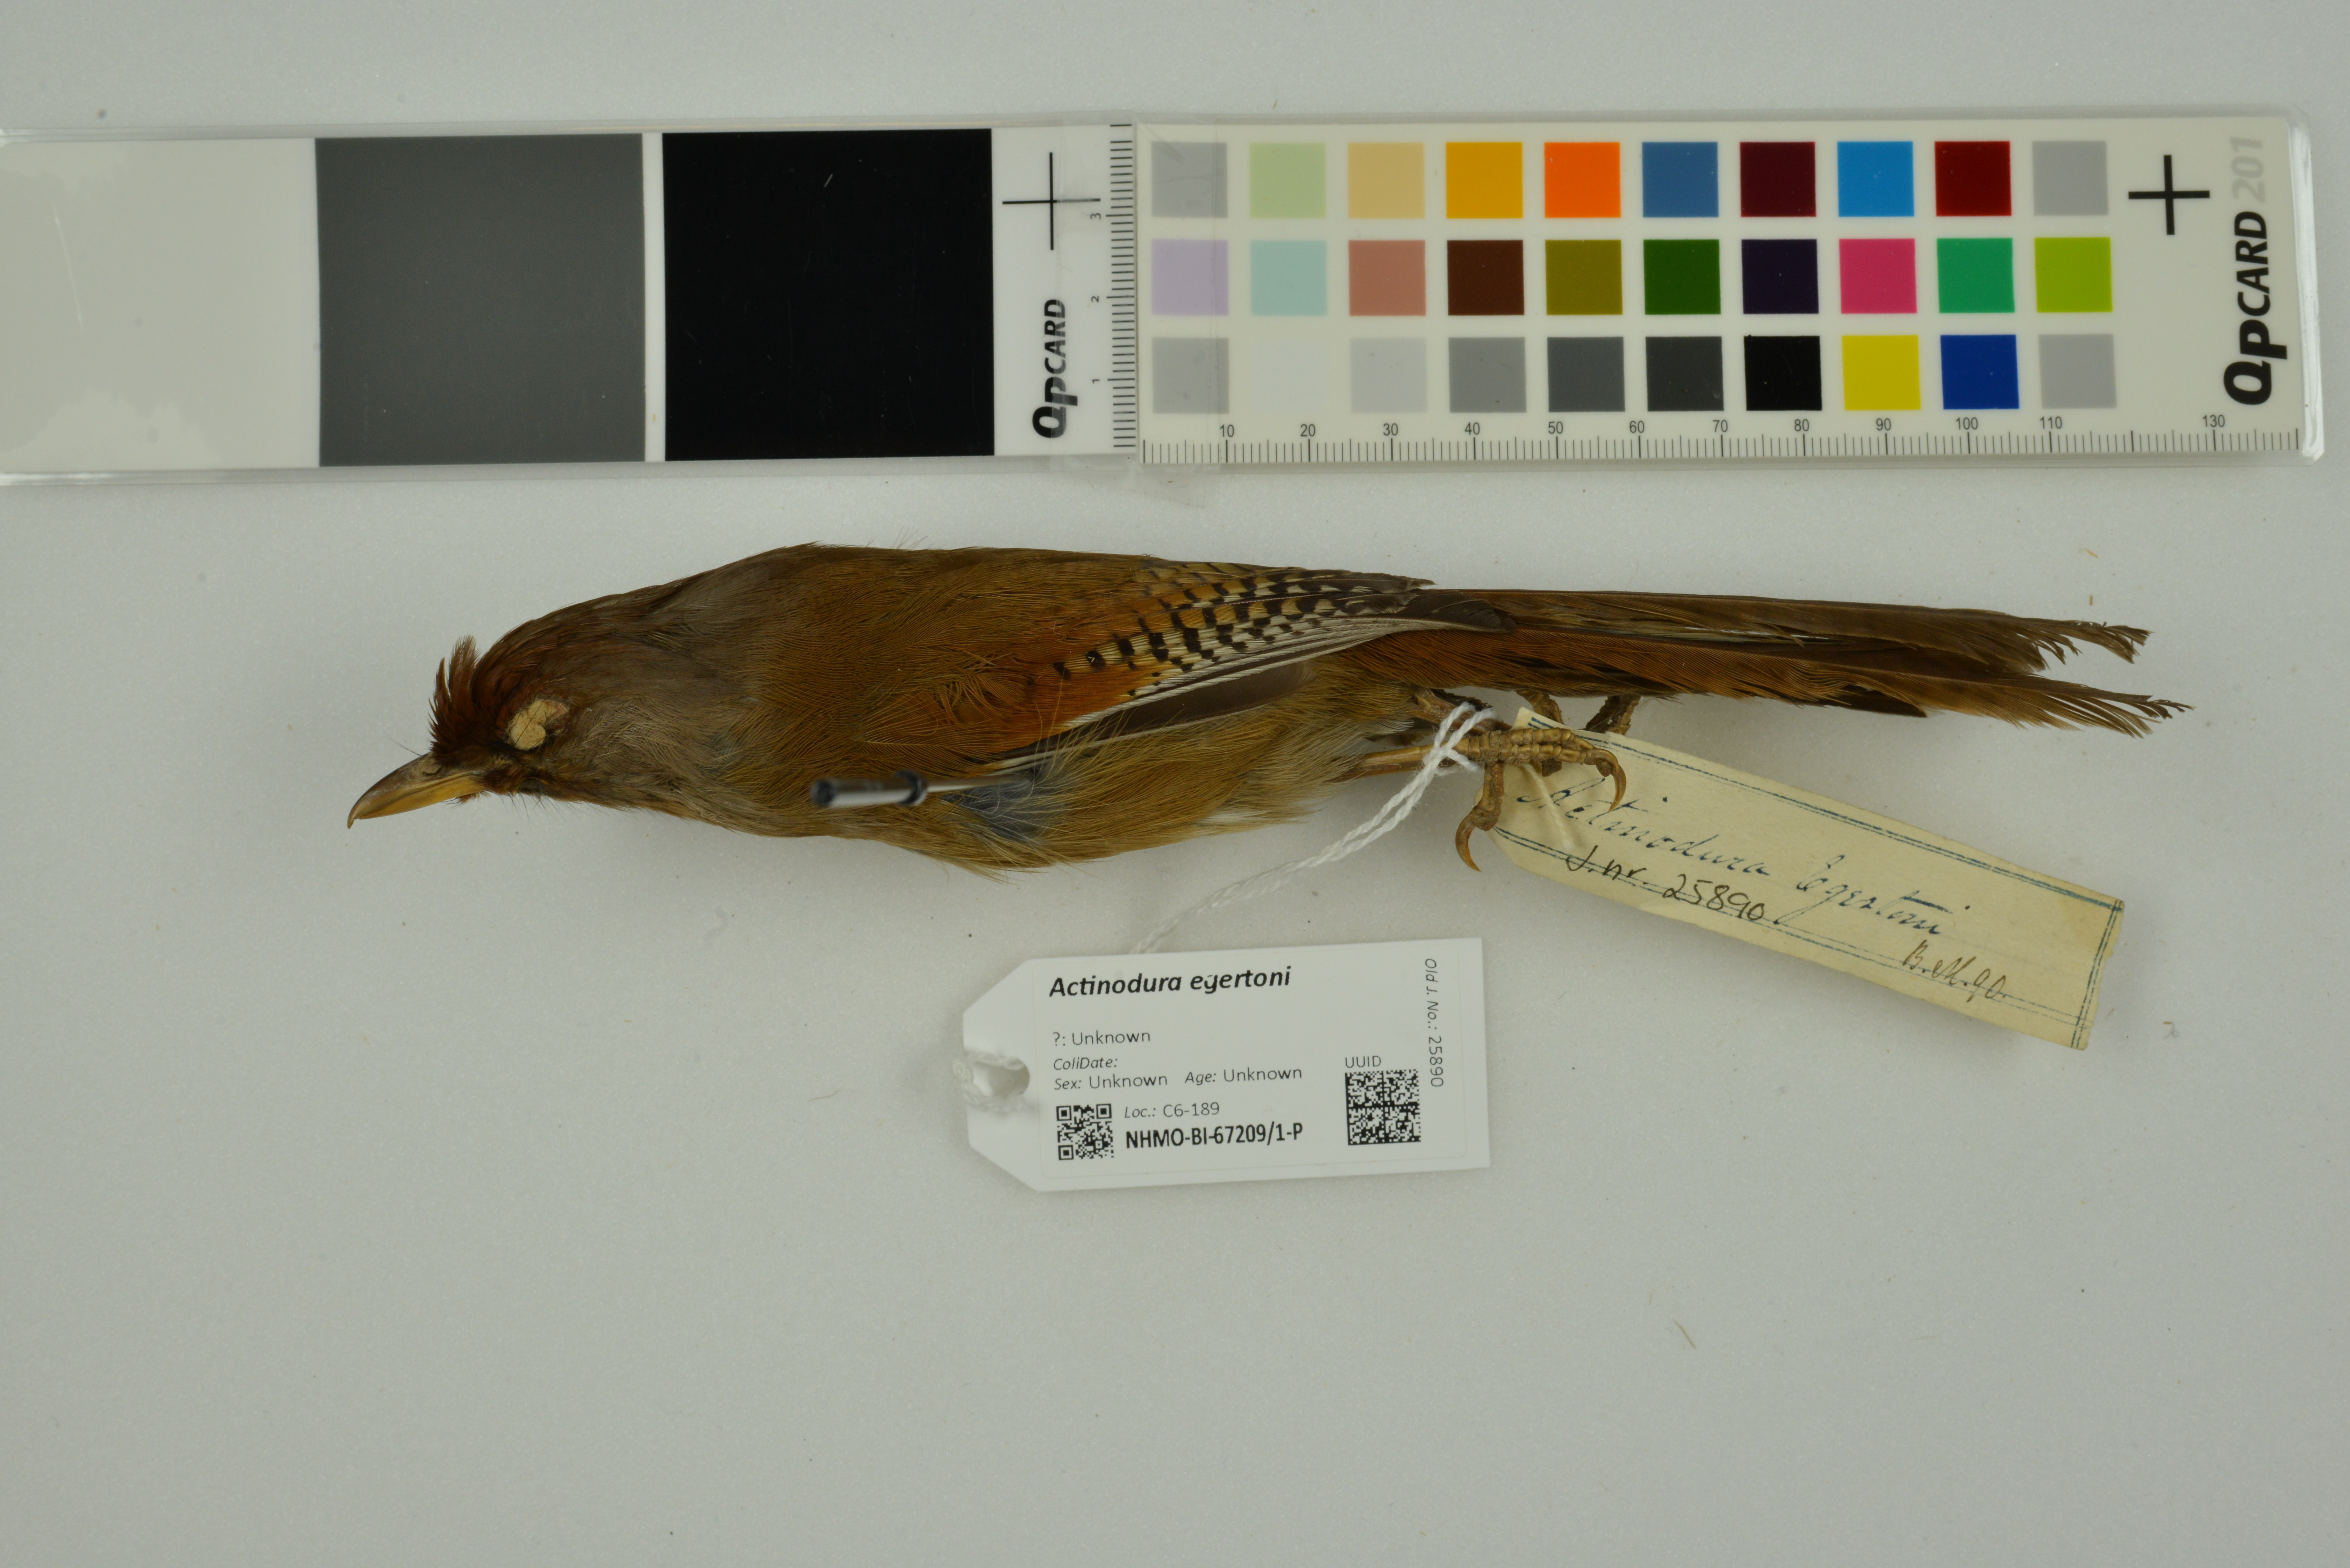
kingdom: Animalia
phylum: Chordata
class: Aves
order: Passeriformes
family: Leiothrichidae
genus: Actinodura
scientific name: Actinodura egertoni
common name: Rusty-fronted barwing
